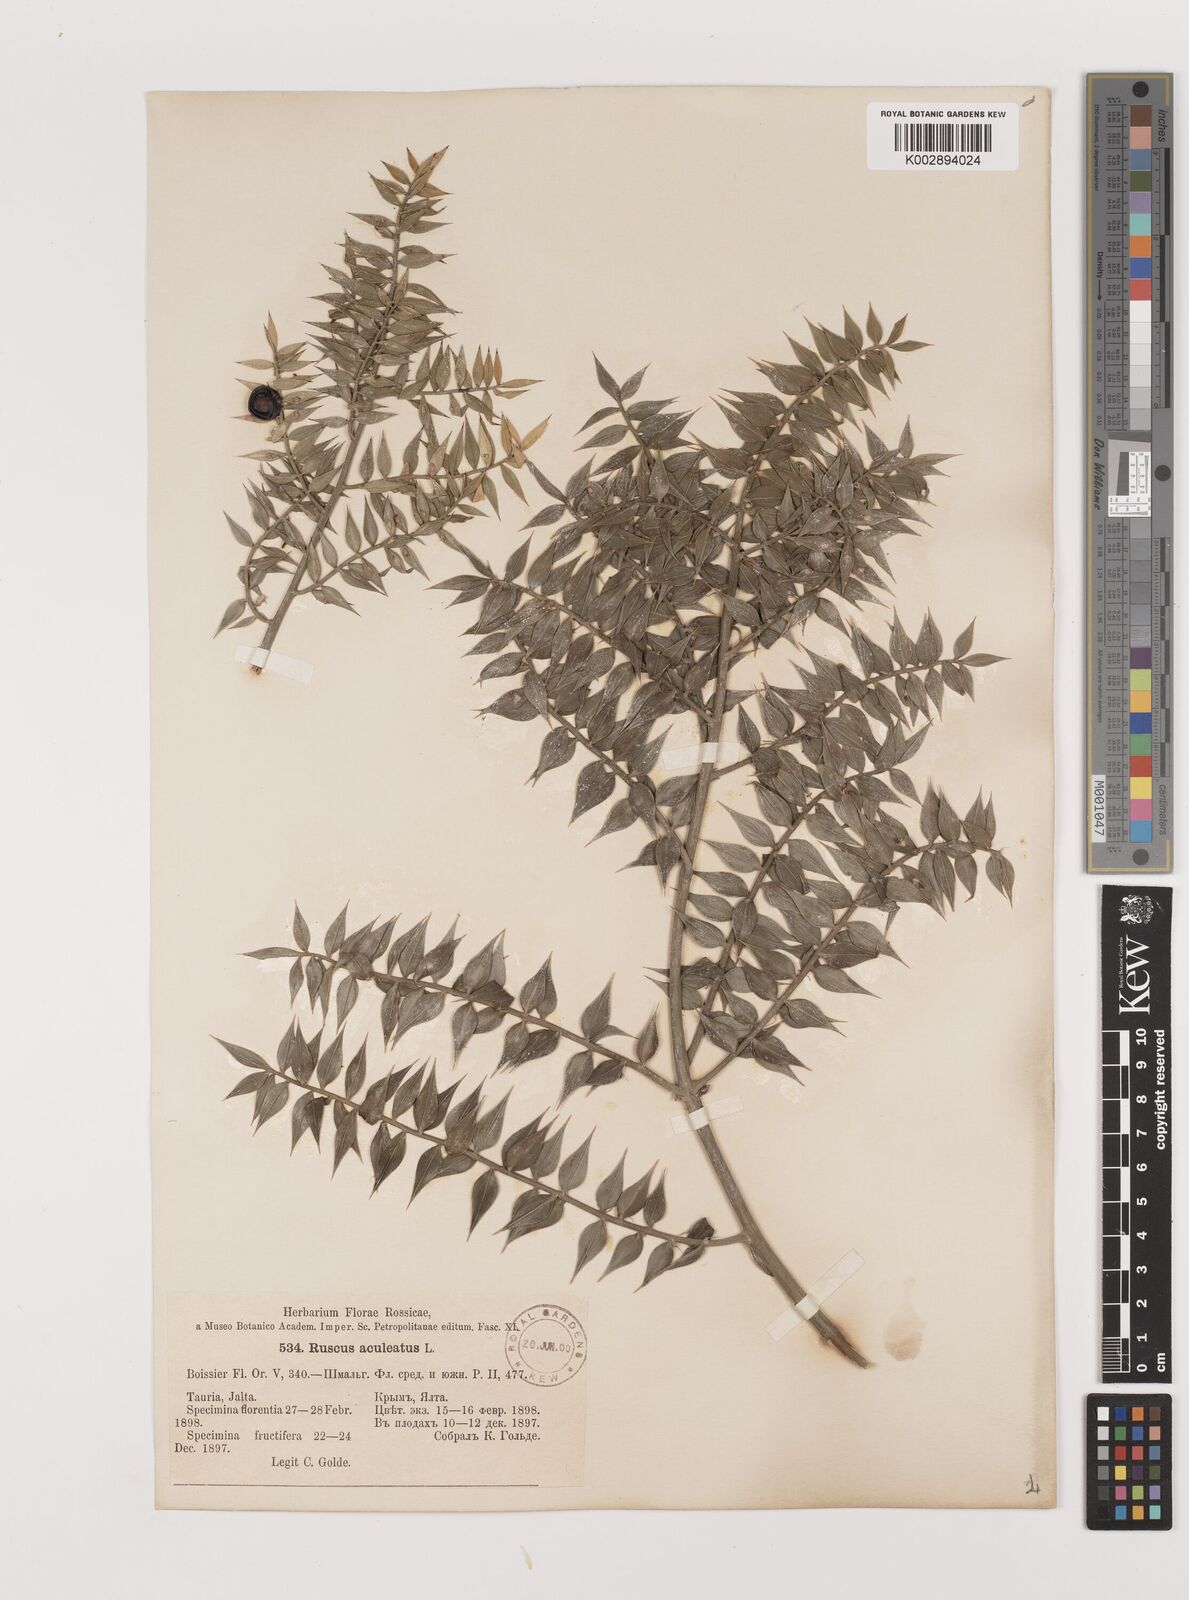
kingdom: Plantae
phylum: Tracheophyta
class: Liliopsida
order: Asparagales
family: Asparagaceae
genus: Ruscus
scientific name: Ruscus aculeatus
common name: Butcher's-broom
